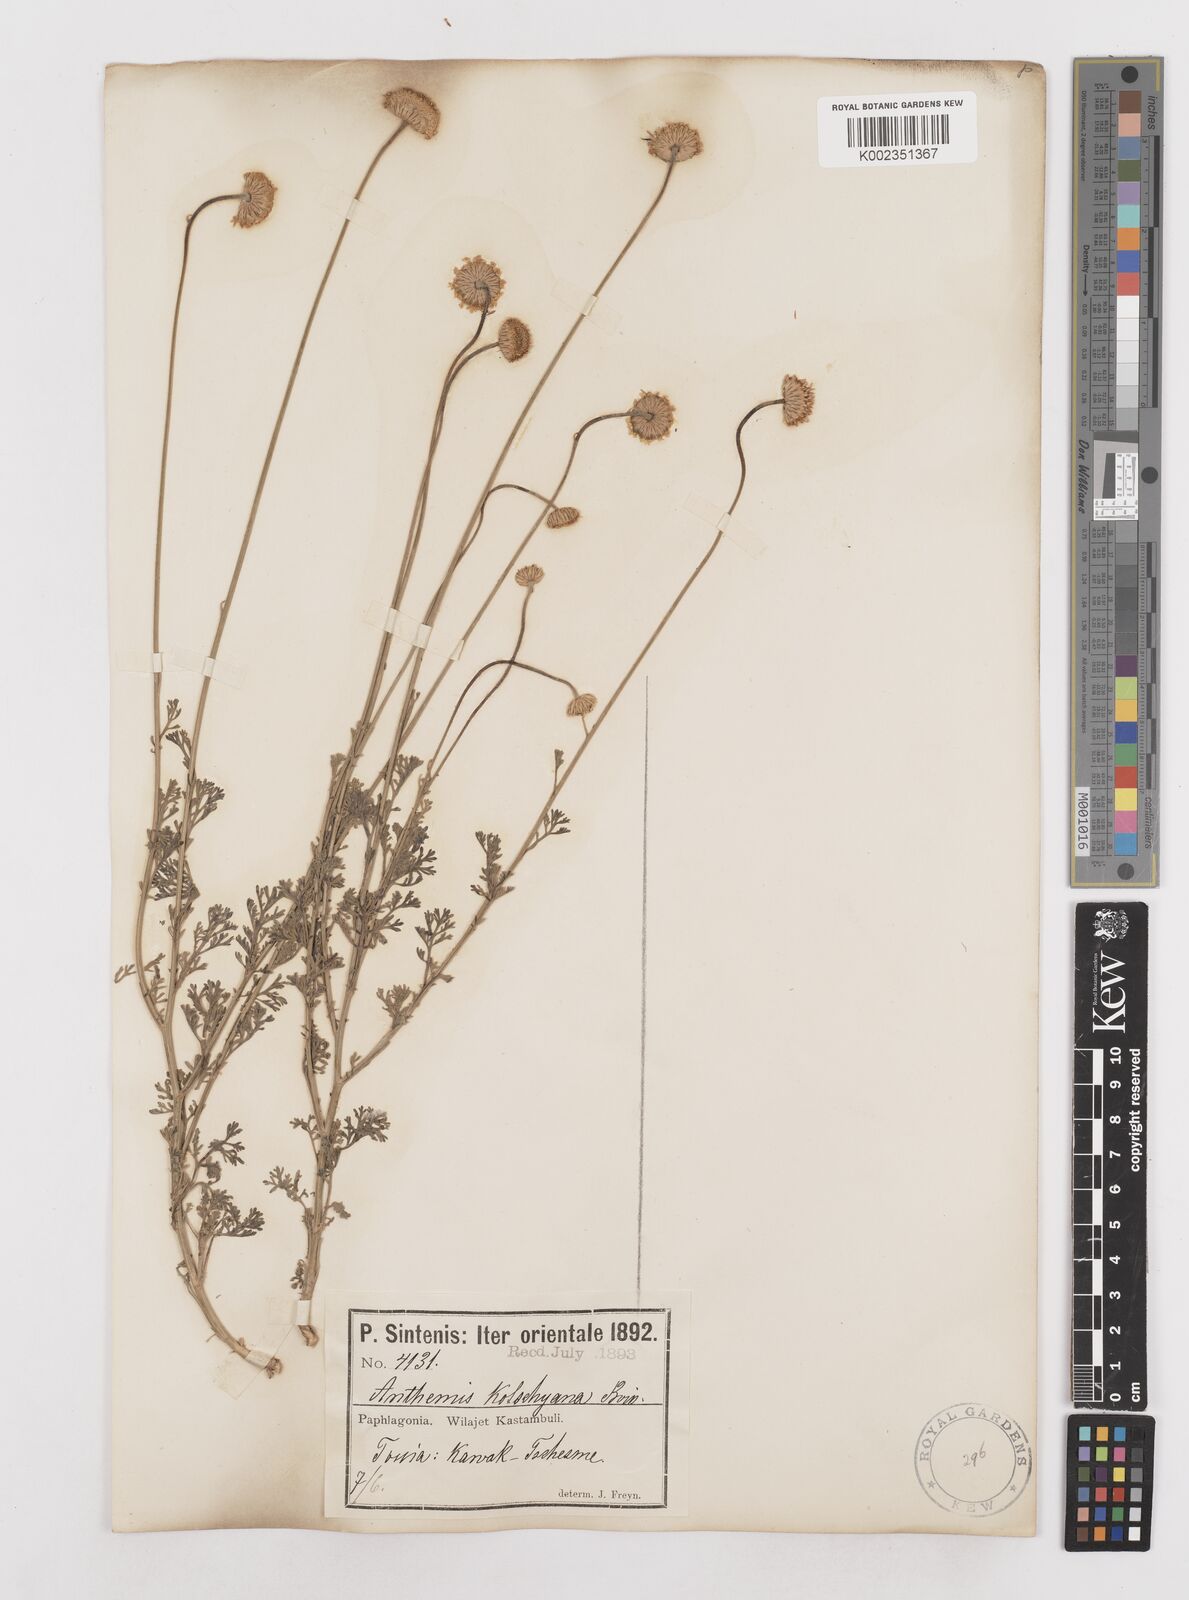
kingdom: Plantae
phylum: Tracheophyta
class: Magnoliopsida
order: Asterales
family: Asteraceae
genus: Anthemis
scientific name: Anthemis kotschyana
